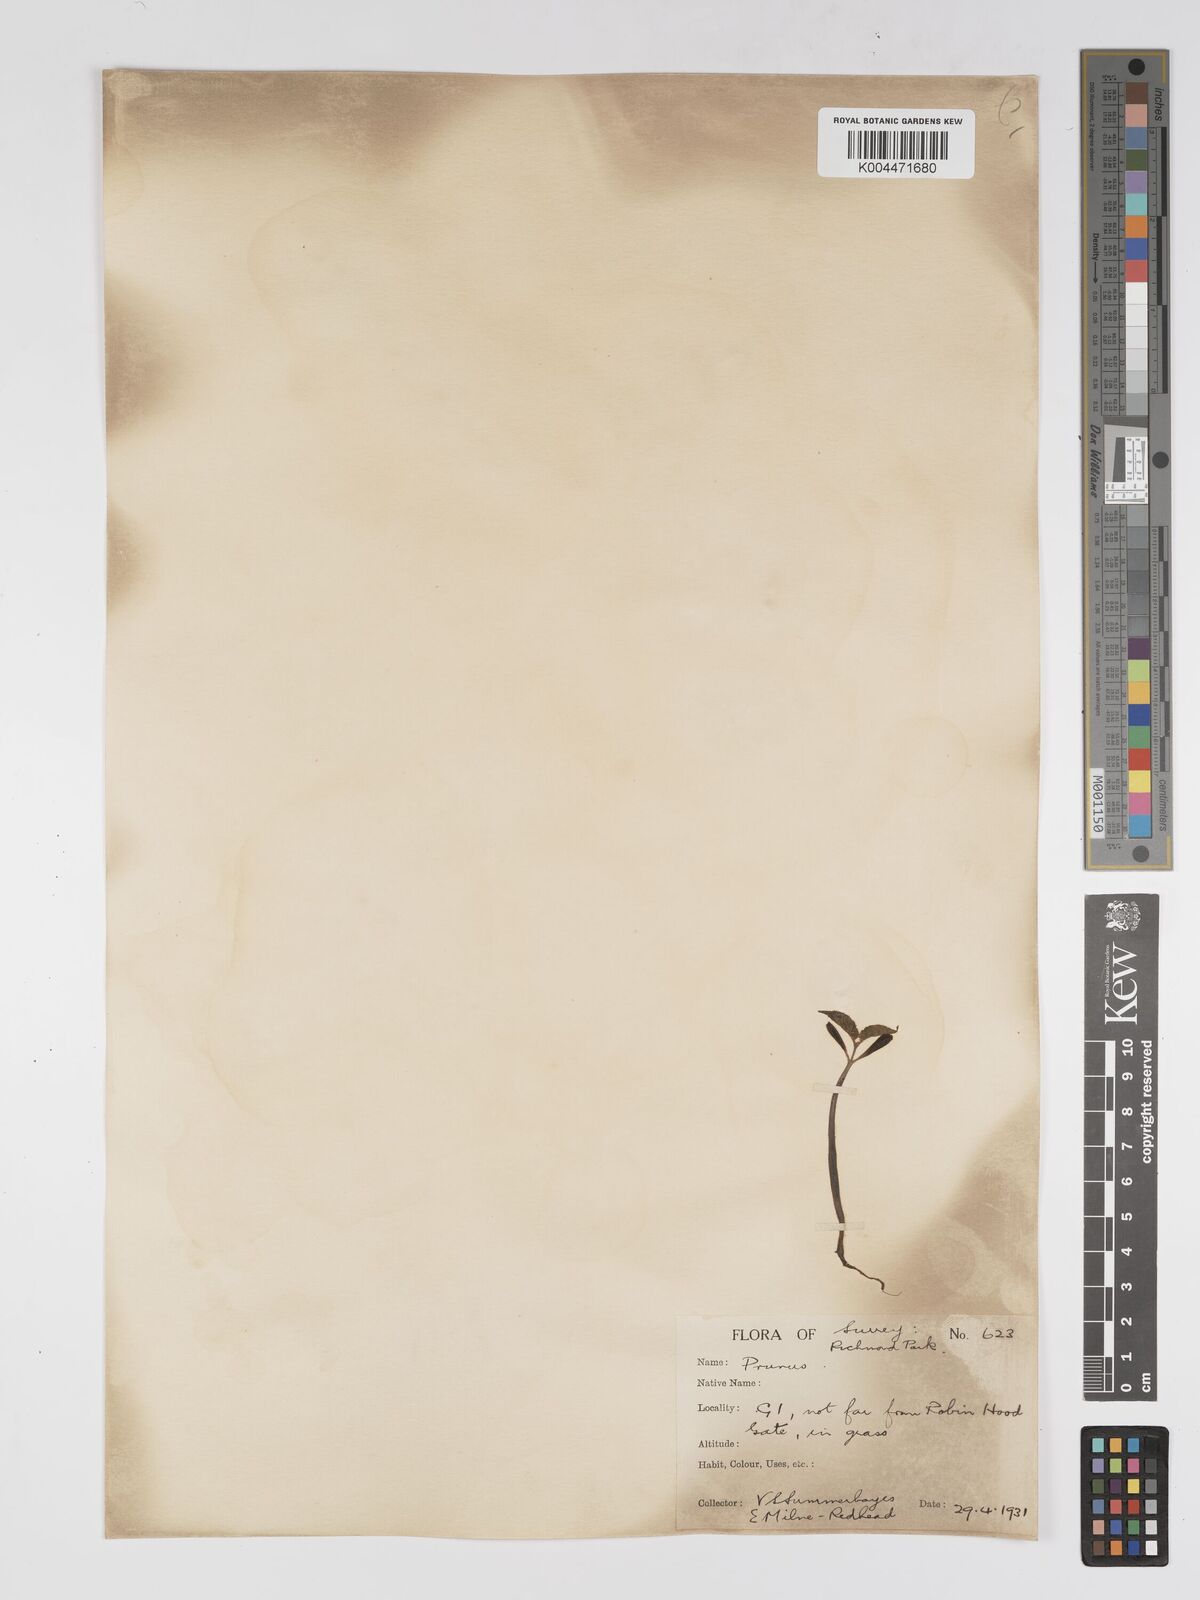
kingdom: Plantae
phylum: Tracheophyta
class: Magnoliopsida
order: Rosales
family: Rosaceae
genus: Prunus
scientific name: Prunus
